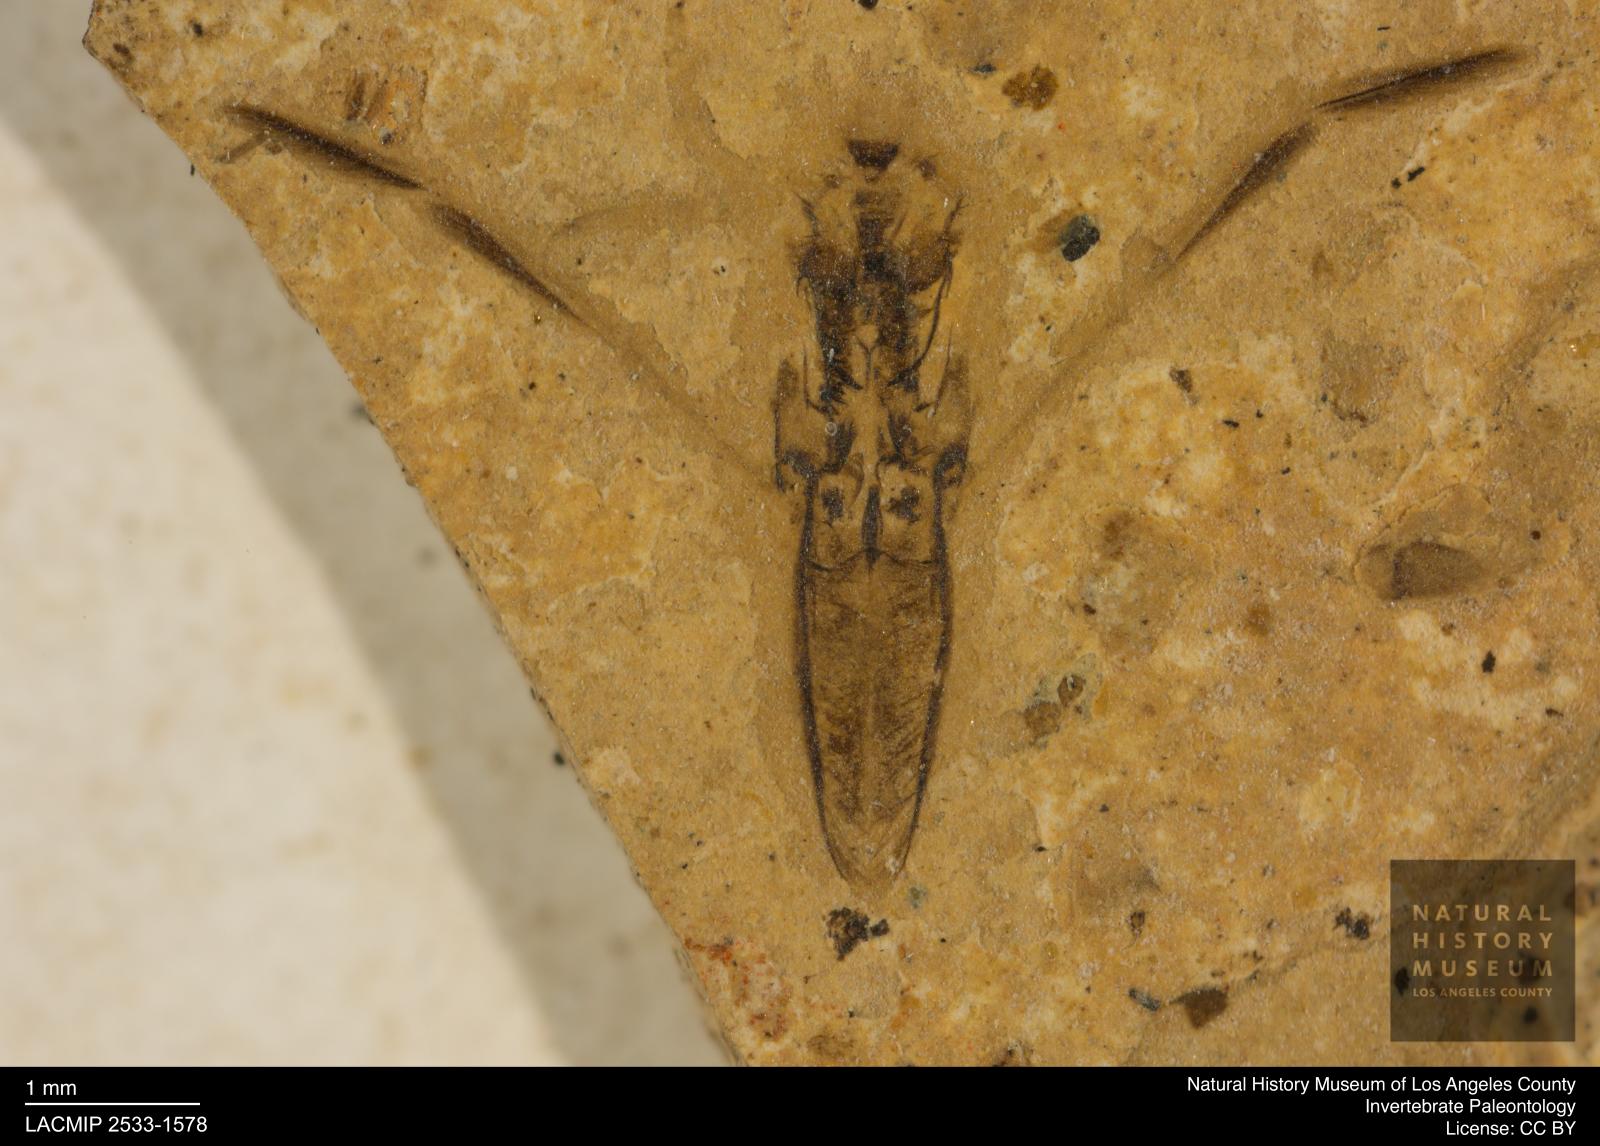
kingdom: Animalia
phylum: Arthropoda
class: Insecta
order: Hemiptera
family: Notonectidae
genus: Notonecta
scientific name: Notonecta
